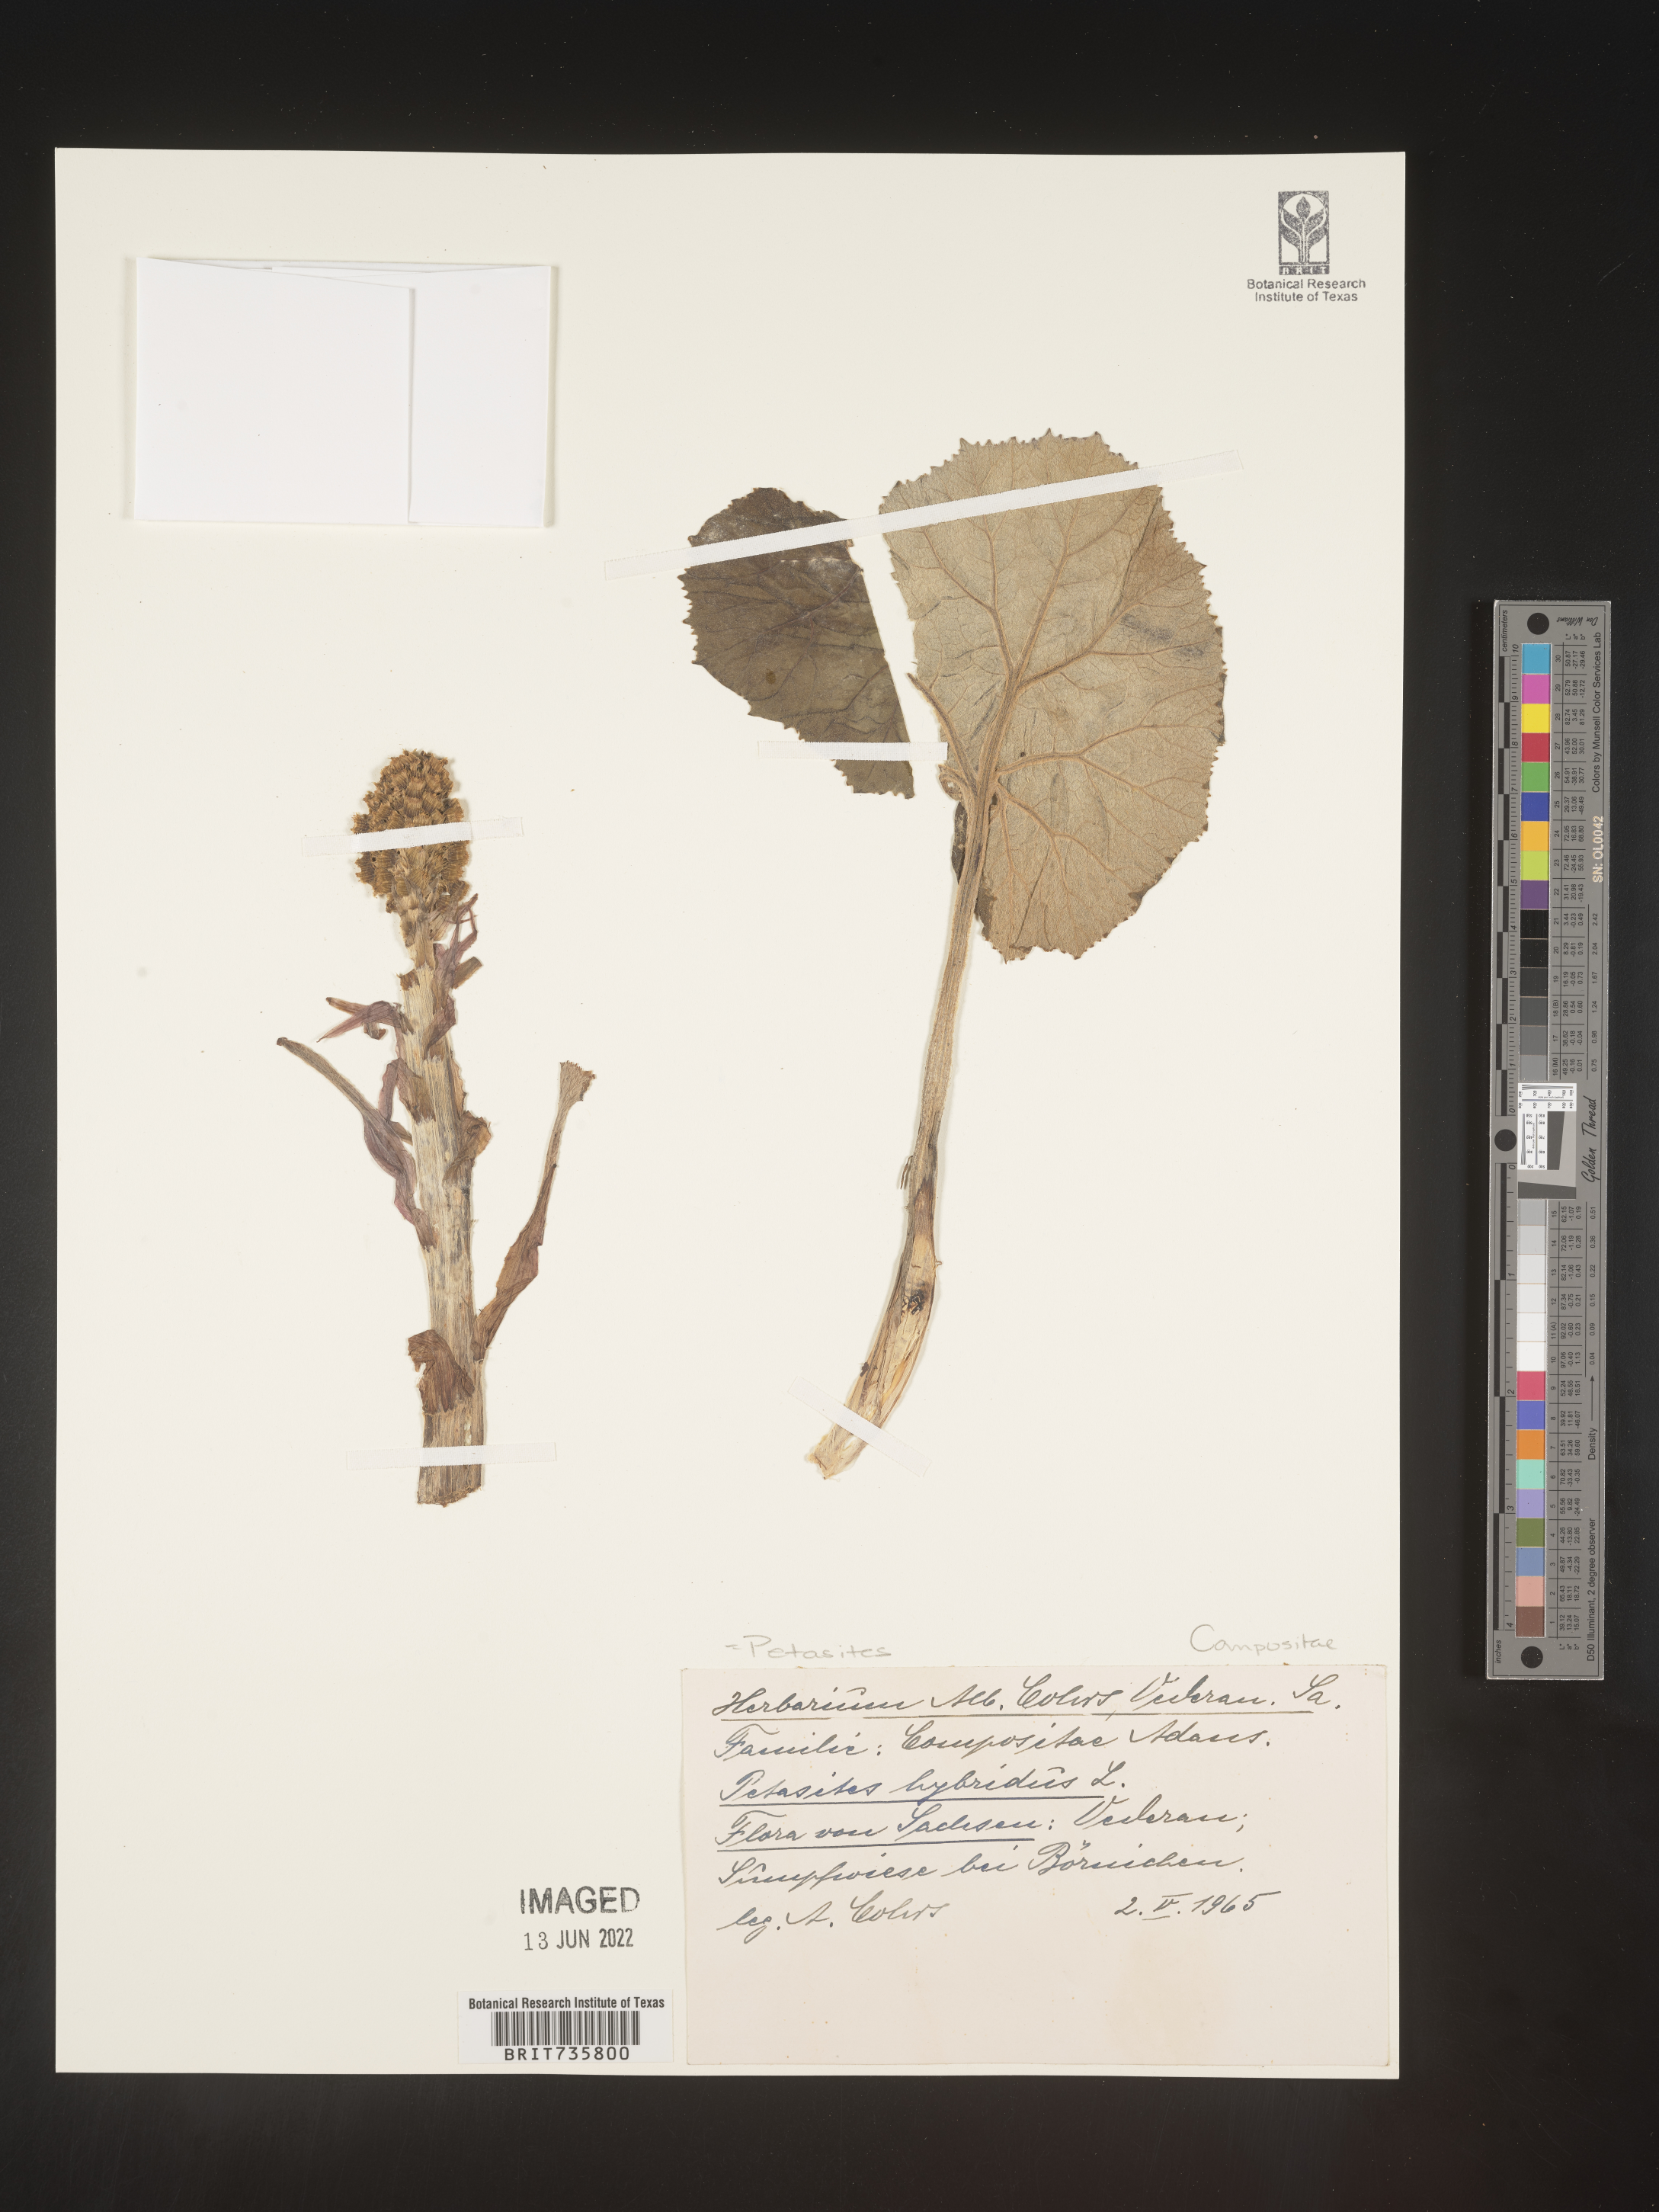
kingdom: Plantae
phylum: Tracheophyta
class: Magnoliopsida
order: Asterales
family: Asteraceae
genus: Petasites
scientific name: Petasites
